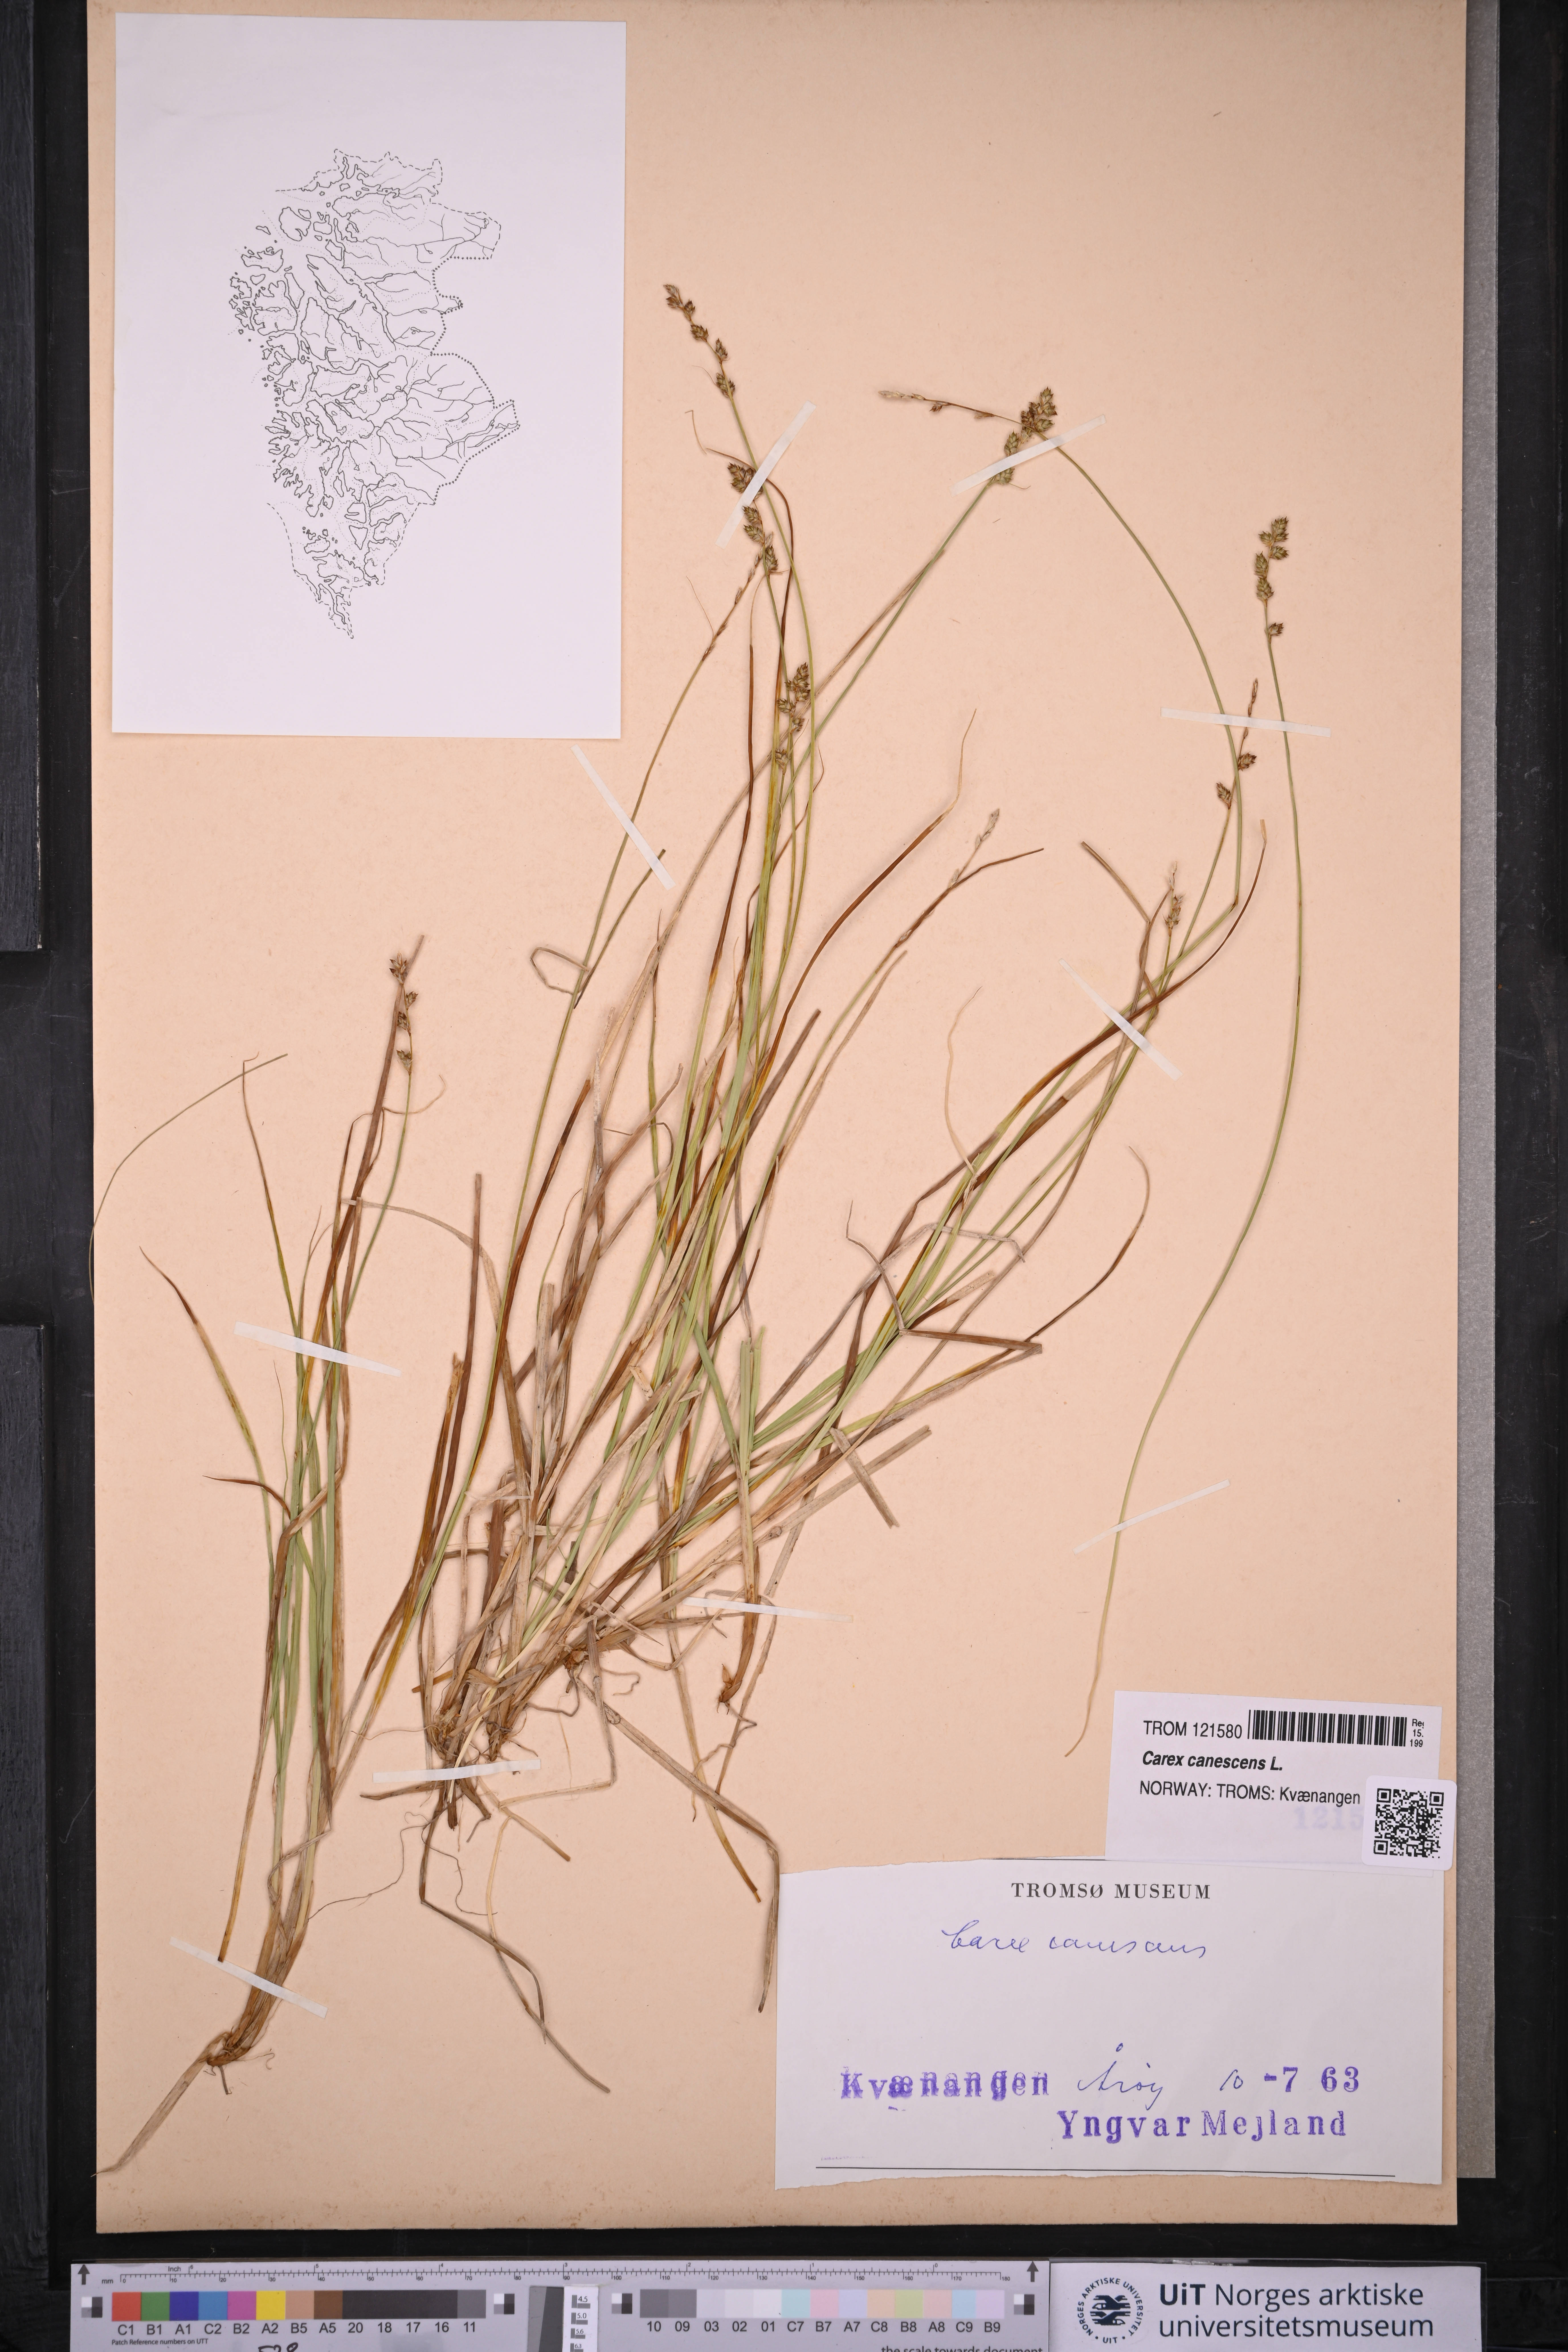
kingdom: Plantae
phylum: Tracheophyta
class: Liliopsida
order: Poales
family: Cyperaceae
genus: Carex
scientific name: Carex canescens
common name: White sedge
